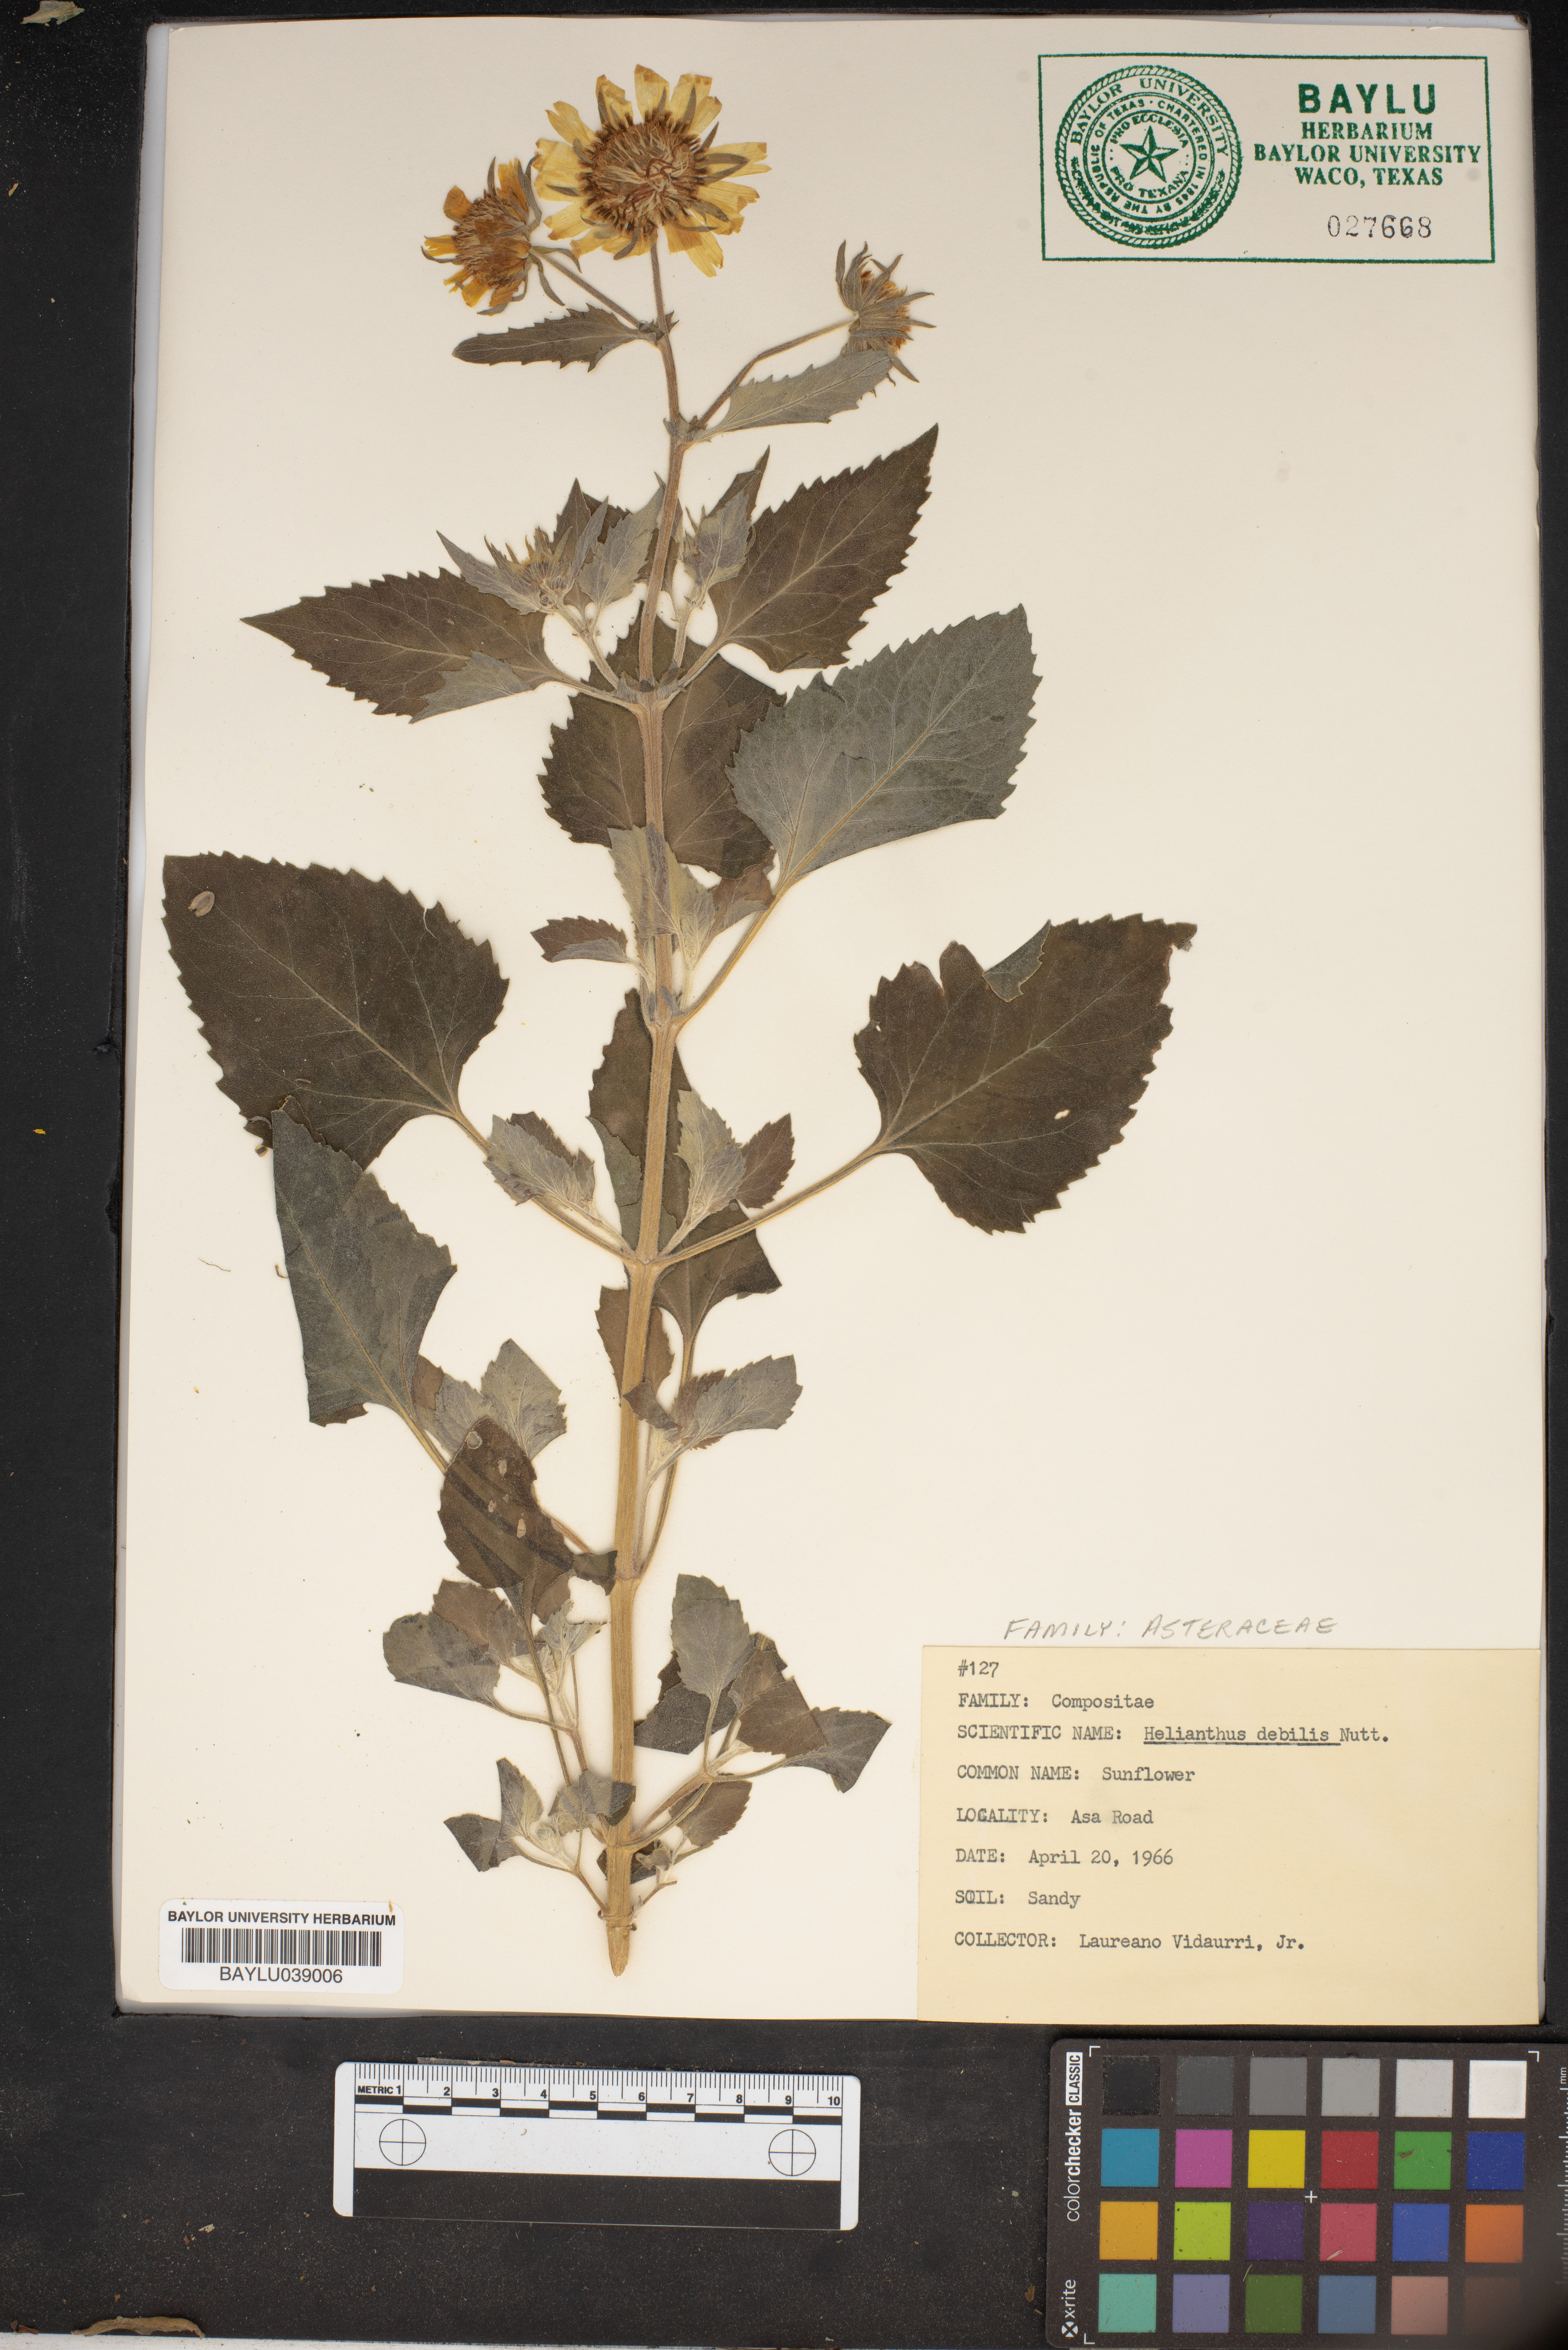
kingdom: Plantae
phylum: Tracheophyta
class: Magnoliopsida
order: Asterales
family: Asteraceae
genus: Helianthus
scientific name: Helianthus debilis
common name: Weak sunflower
